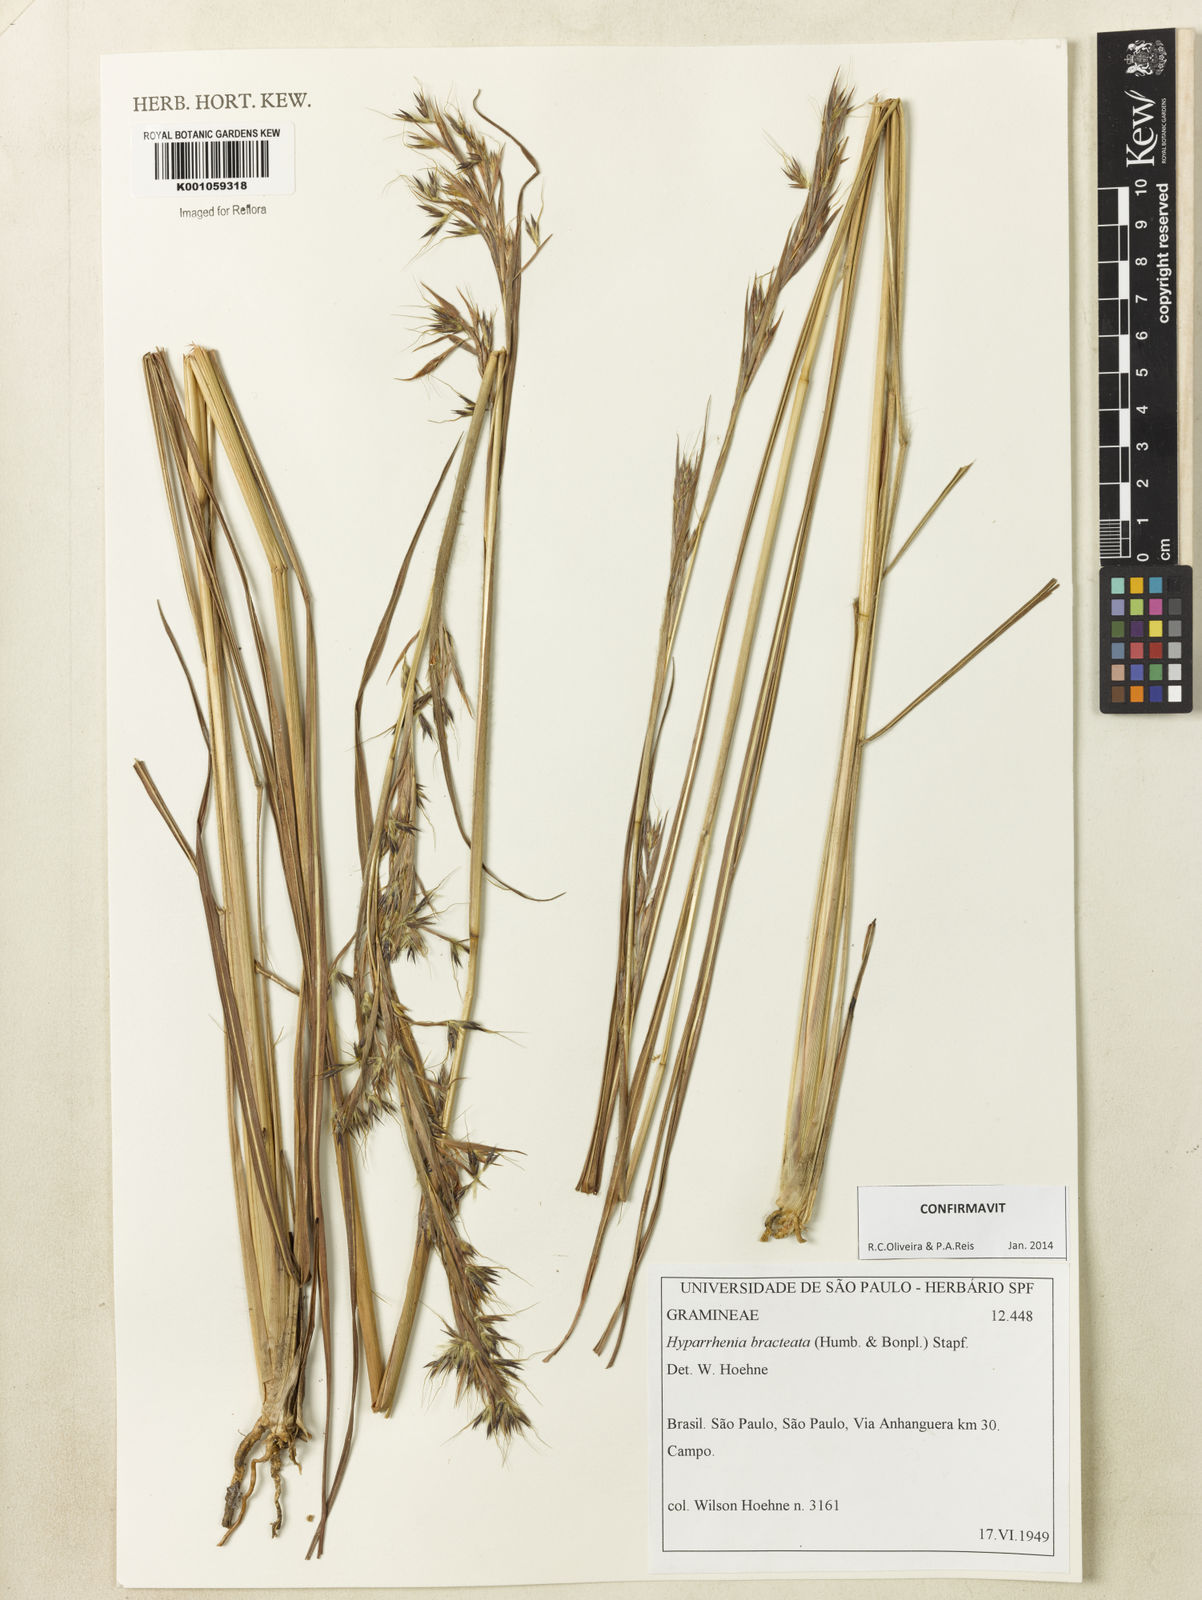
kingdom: Plantae
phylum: Tracheophyta
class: Liliopsida
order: Poales
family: Poaceae
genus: Hyparrhenia
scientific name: Hyparrhenia bracteata
